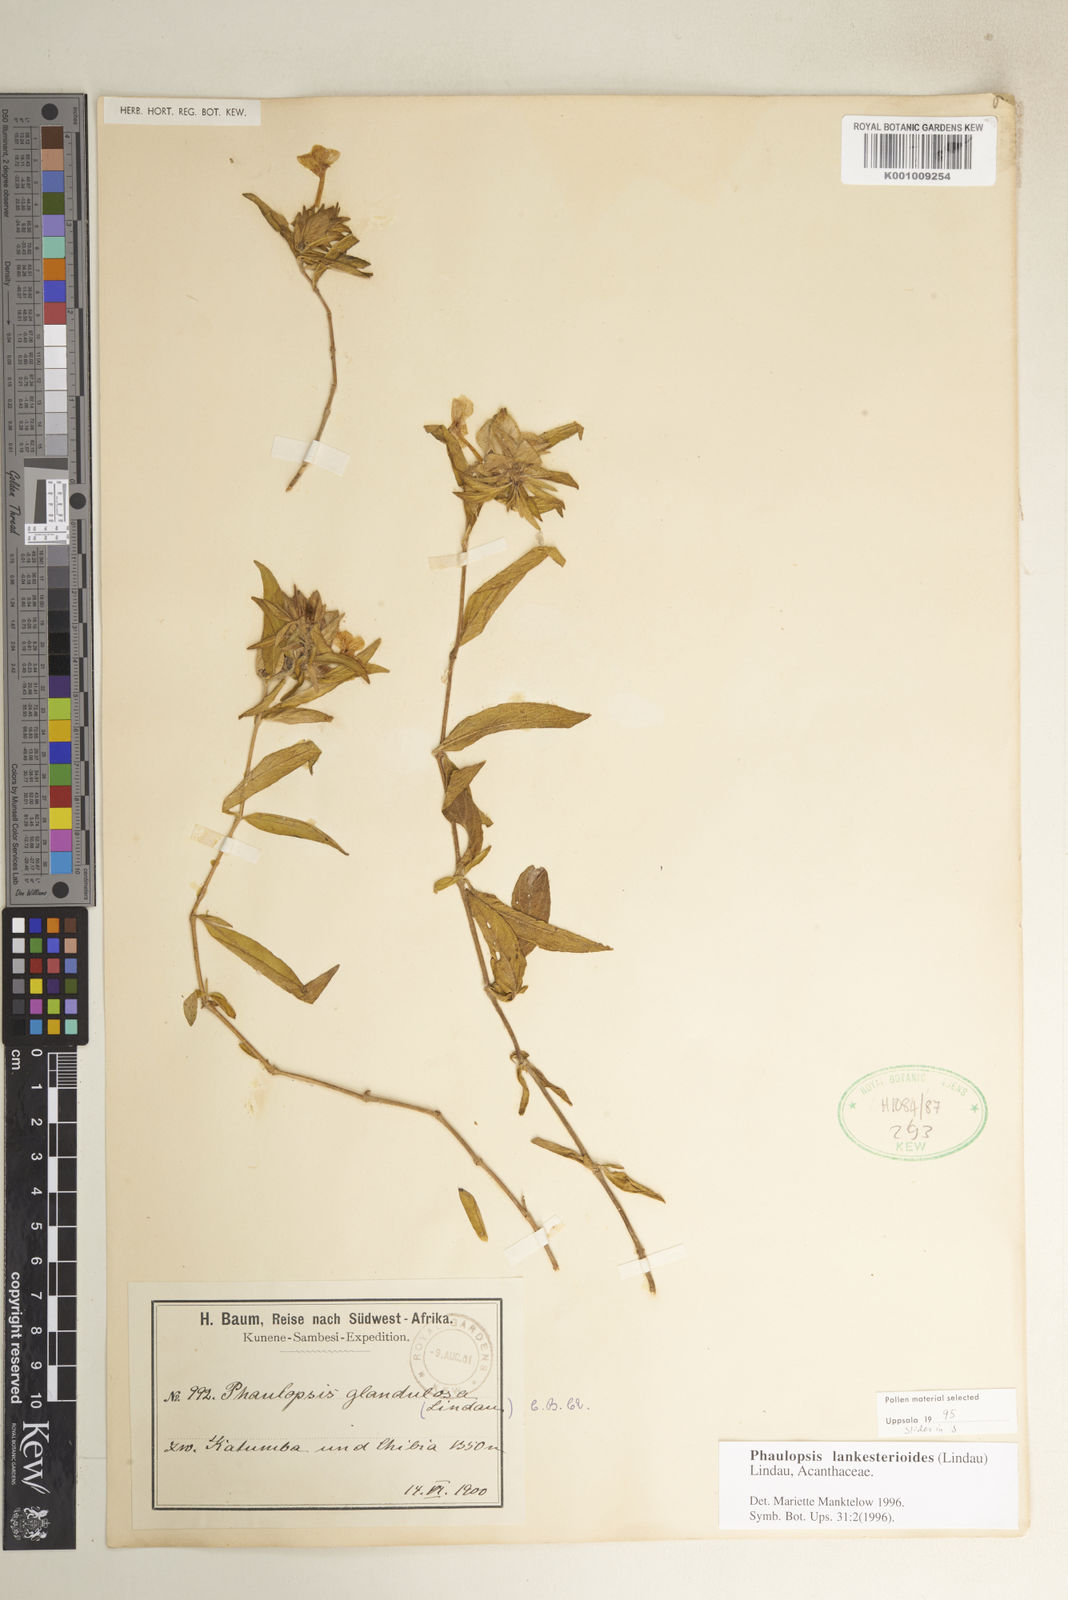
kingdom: Plantae
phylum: Tracheophyta
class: Magnoliopsida
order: Lamiales
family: Acanthaceae
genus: Phaulopsis
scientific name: Phaulopsis lankesterioides
